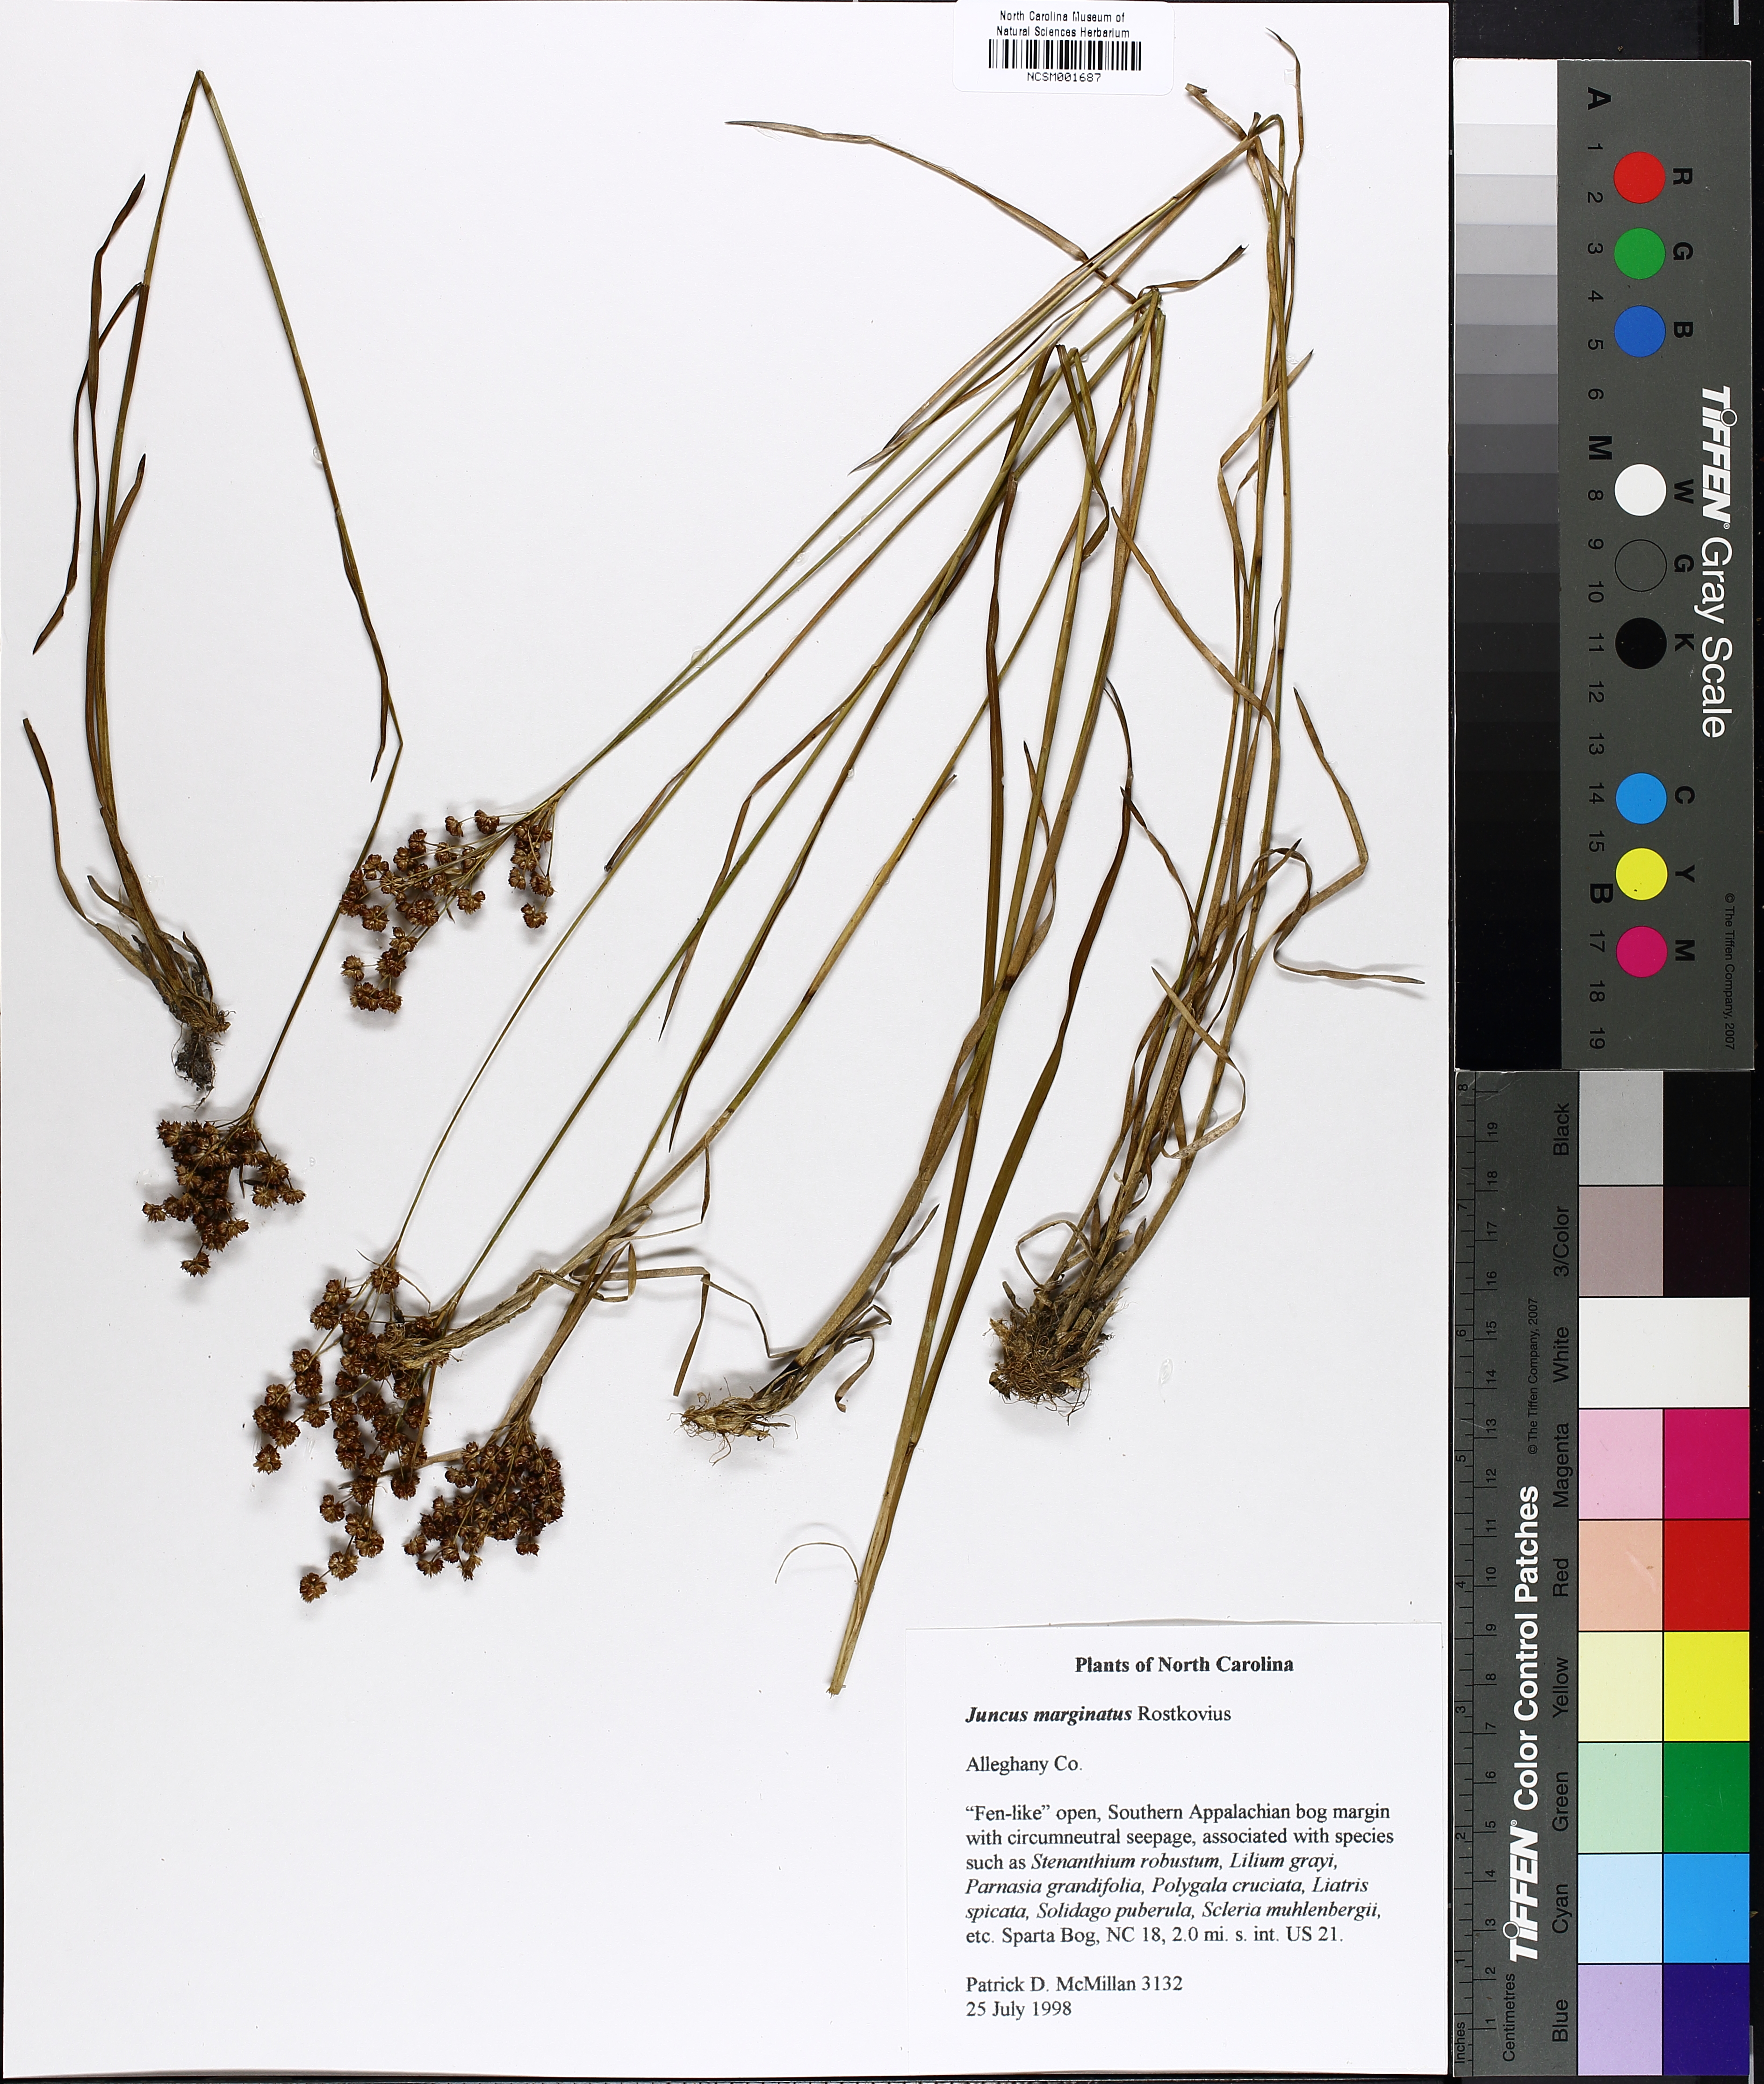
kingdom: Plantae
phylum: Tracheophyta
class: Liliopsida
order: Poales
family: Juncaceae
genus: Juncus
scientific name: Juncus marginatus
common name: Grass-leaf rush
